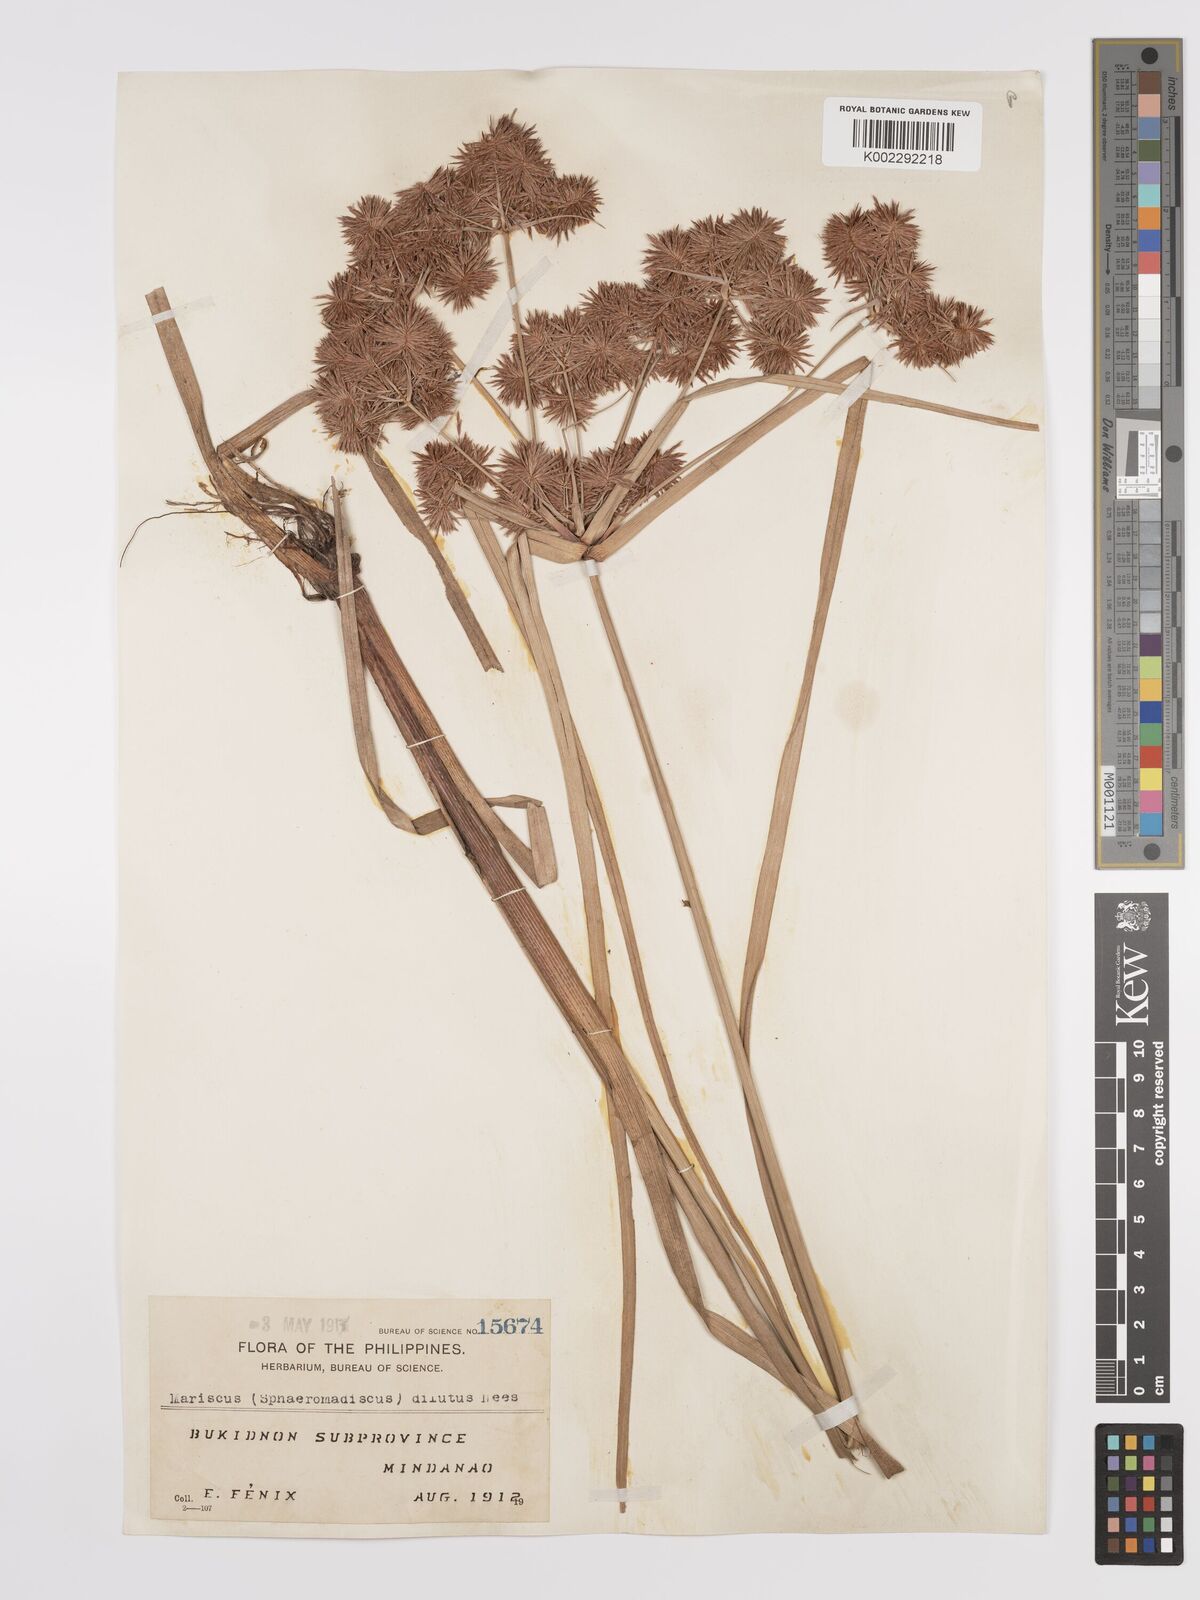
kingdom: Plantae
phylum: Tracheophyta
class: Liliopsida
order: Poales
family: Cyperaceae
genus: Cyperus
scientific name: Cyperus compactus
